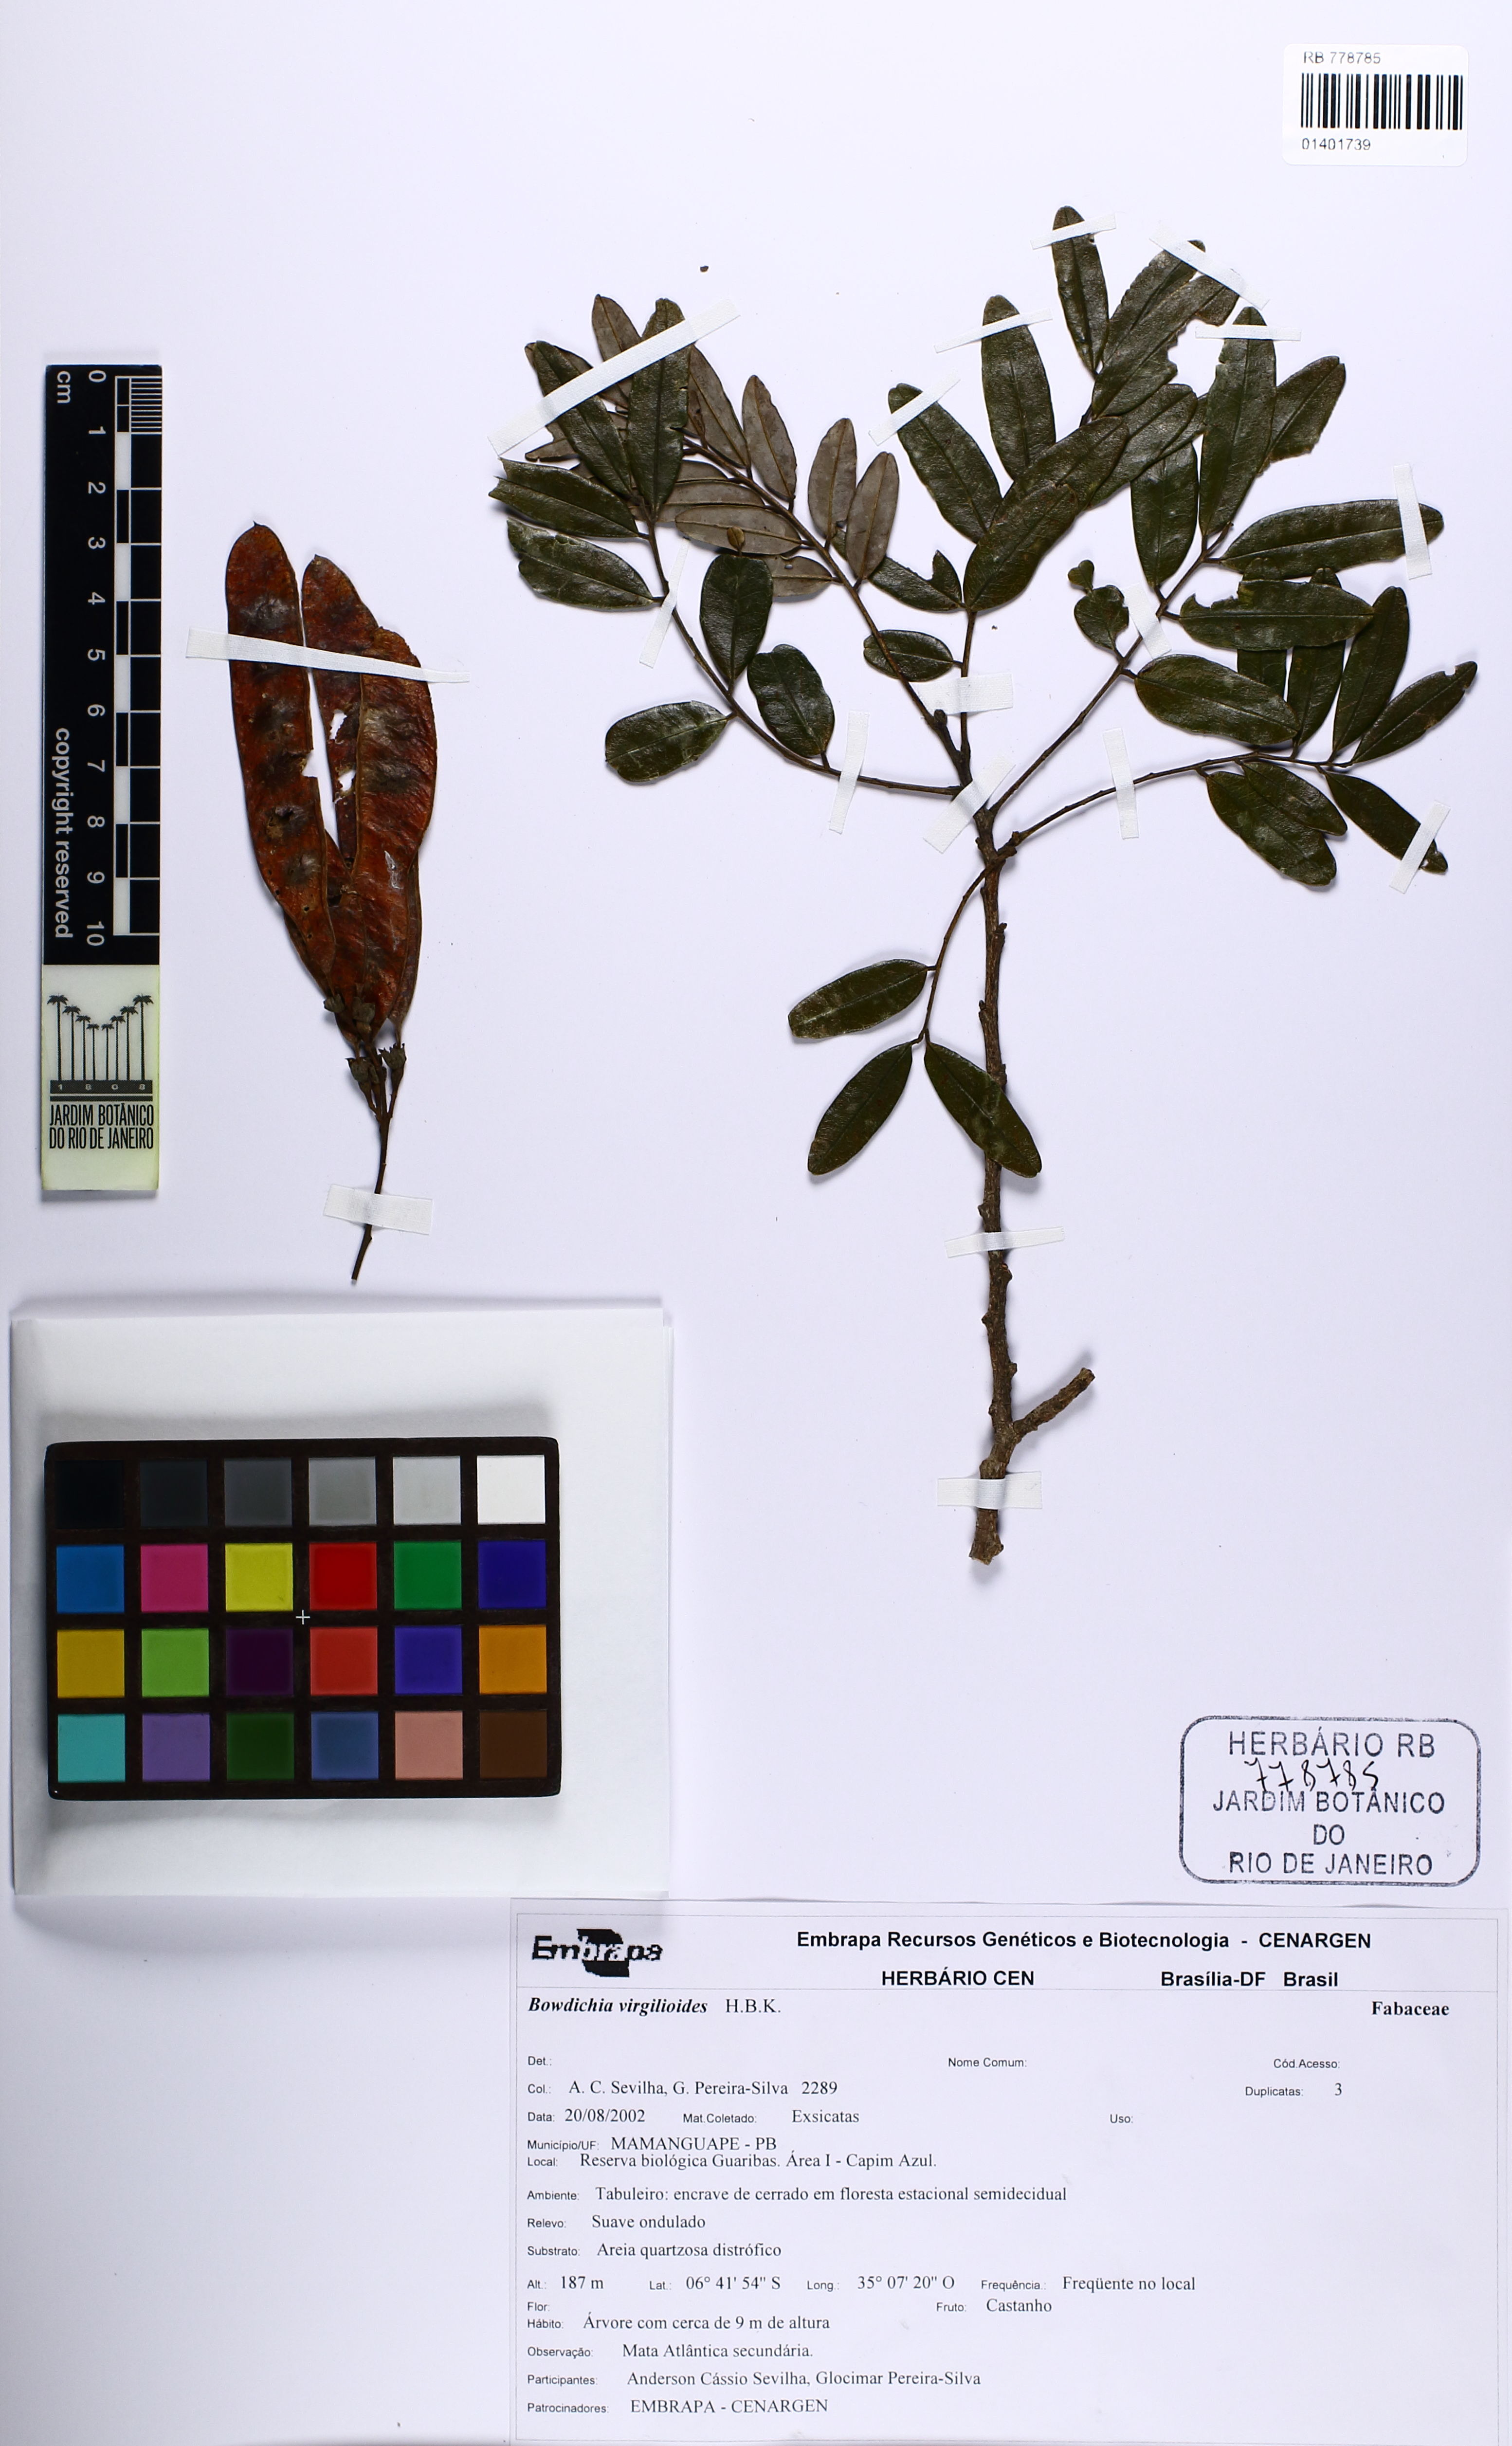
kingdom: Plantae
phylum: Tracheophyta
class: Magnoliopsida
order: Fabales
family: Fabaceae
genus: Bowdichia
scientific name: Bowdichia virgilioides
